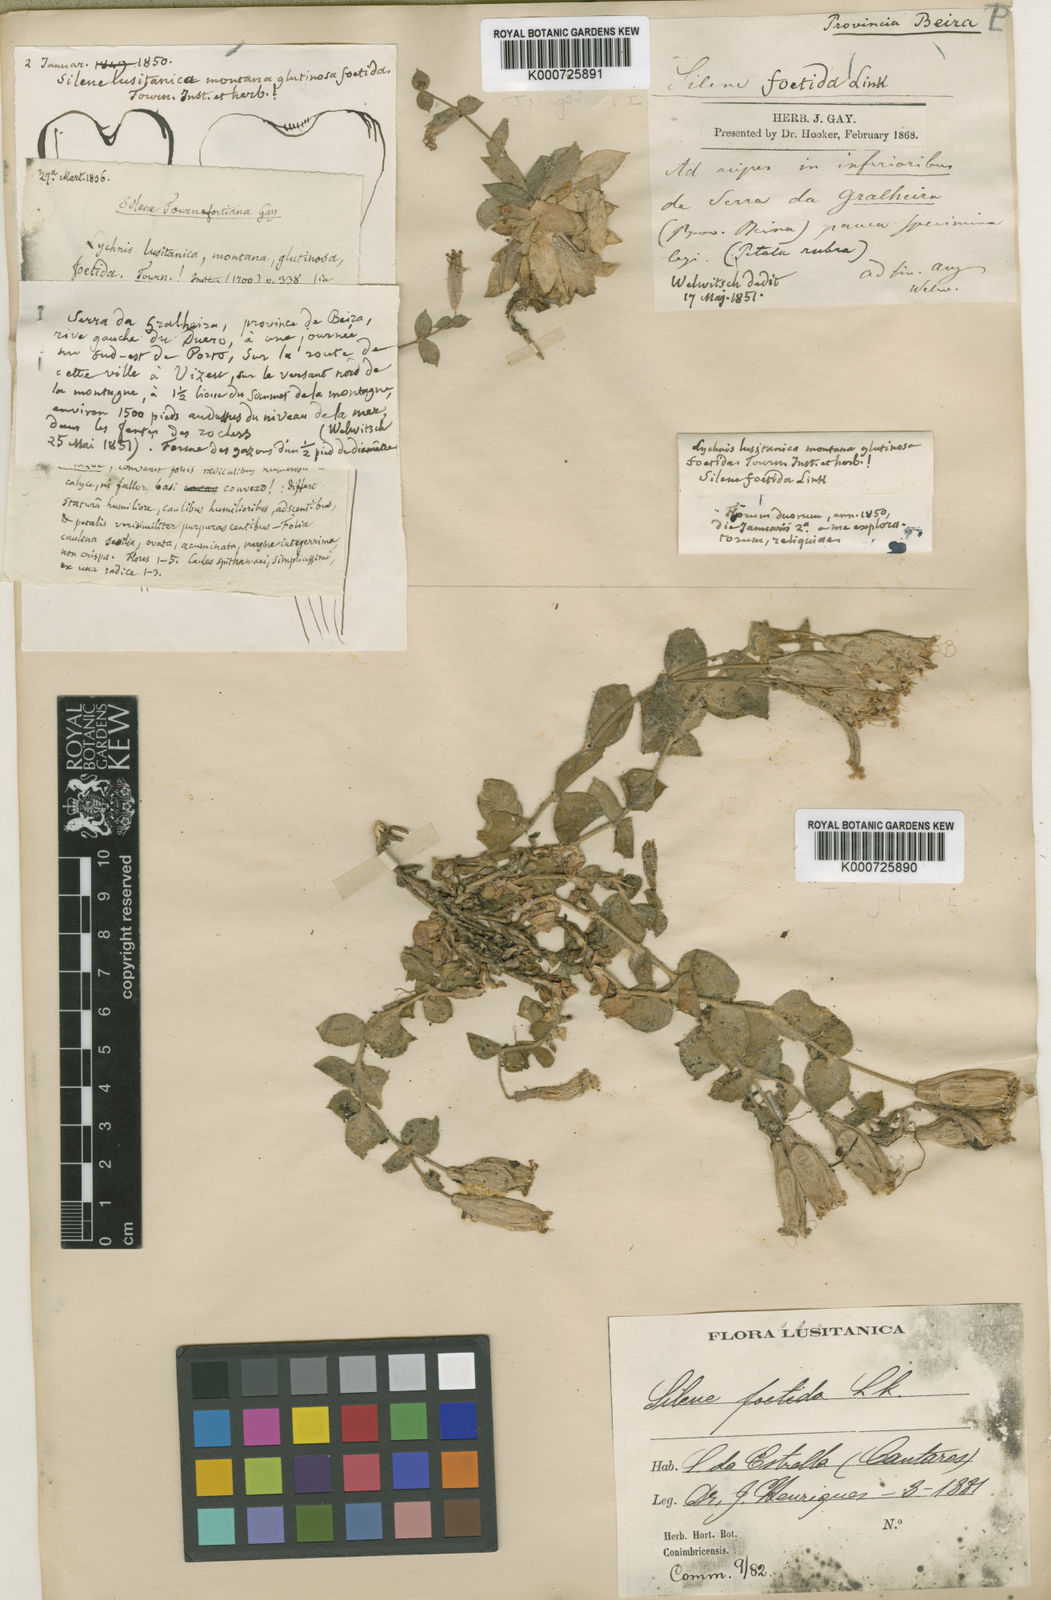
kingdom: Plantae
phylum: Tracheophyta
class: Magnoliopsida
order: Caryophyllales
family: Caryophyllaceae
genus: Silene
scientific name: Silene
